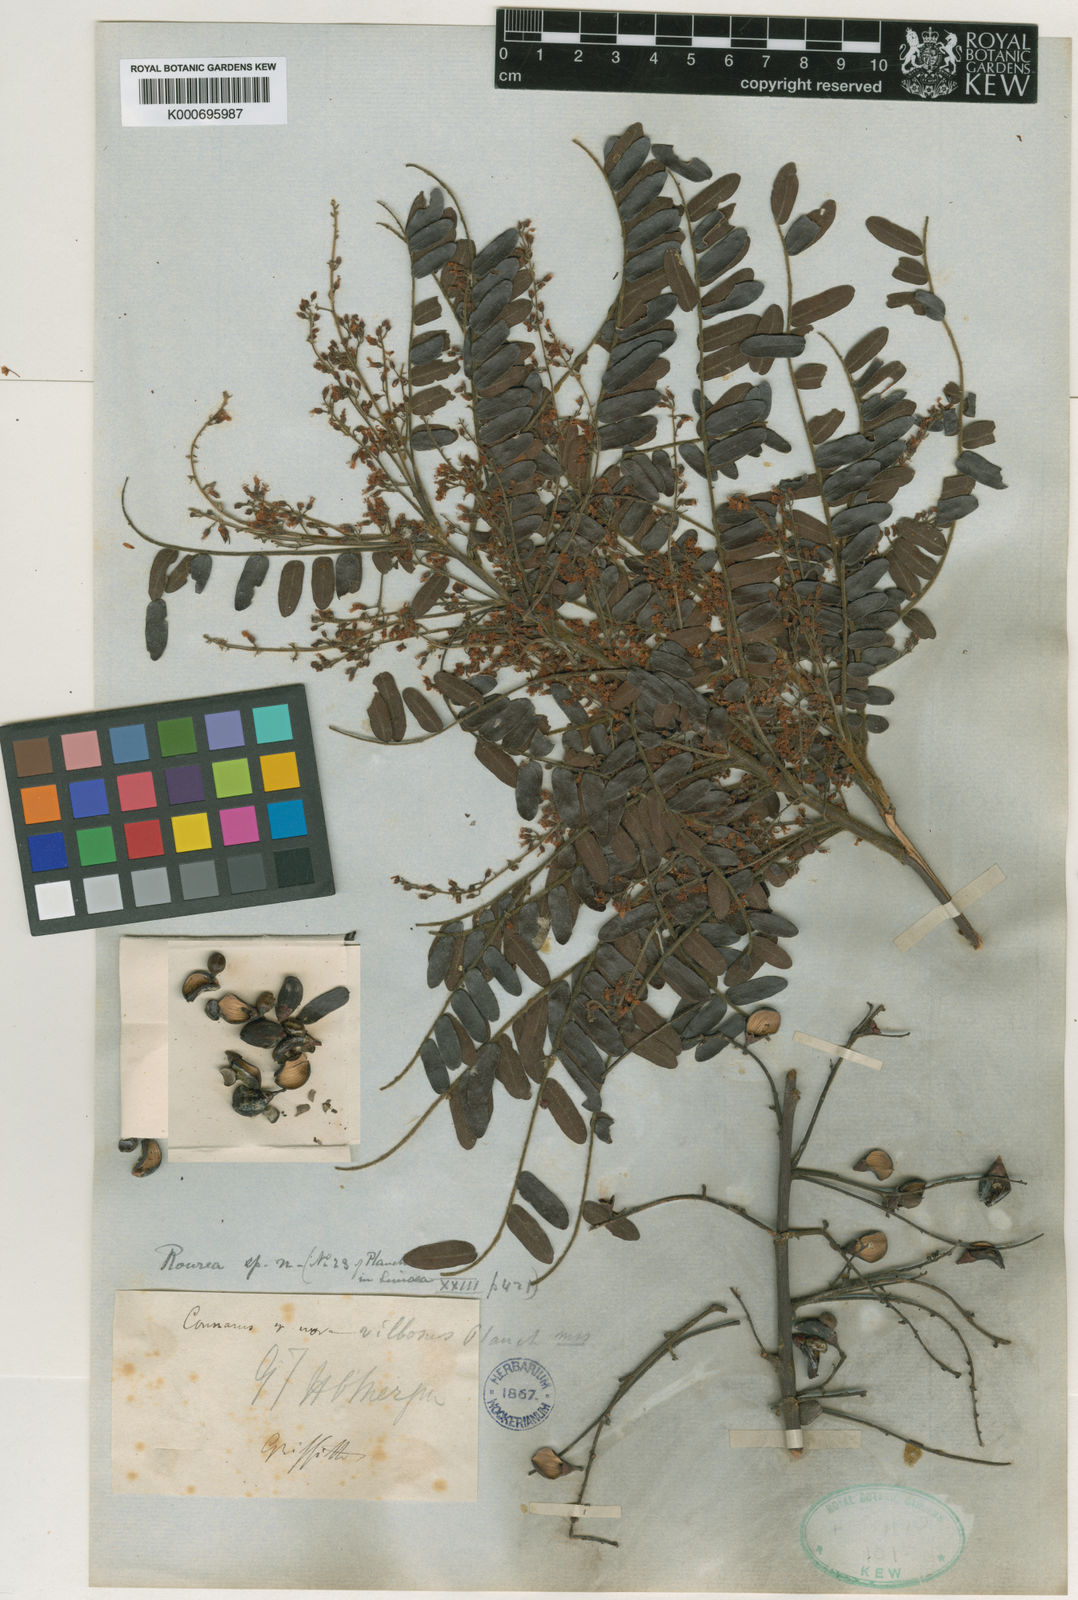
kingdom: Plantae
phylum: Tracheophyta
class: Magnoliopsida
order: Oxalidales
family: Connaraceae
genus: Rourea
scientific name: Rourea
